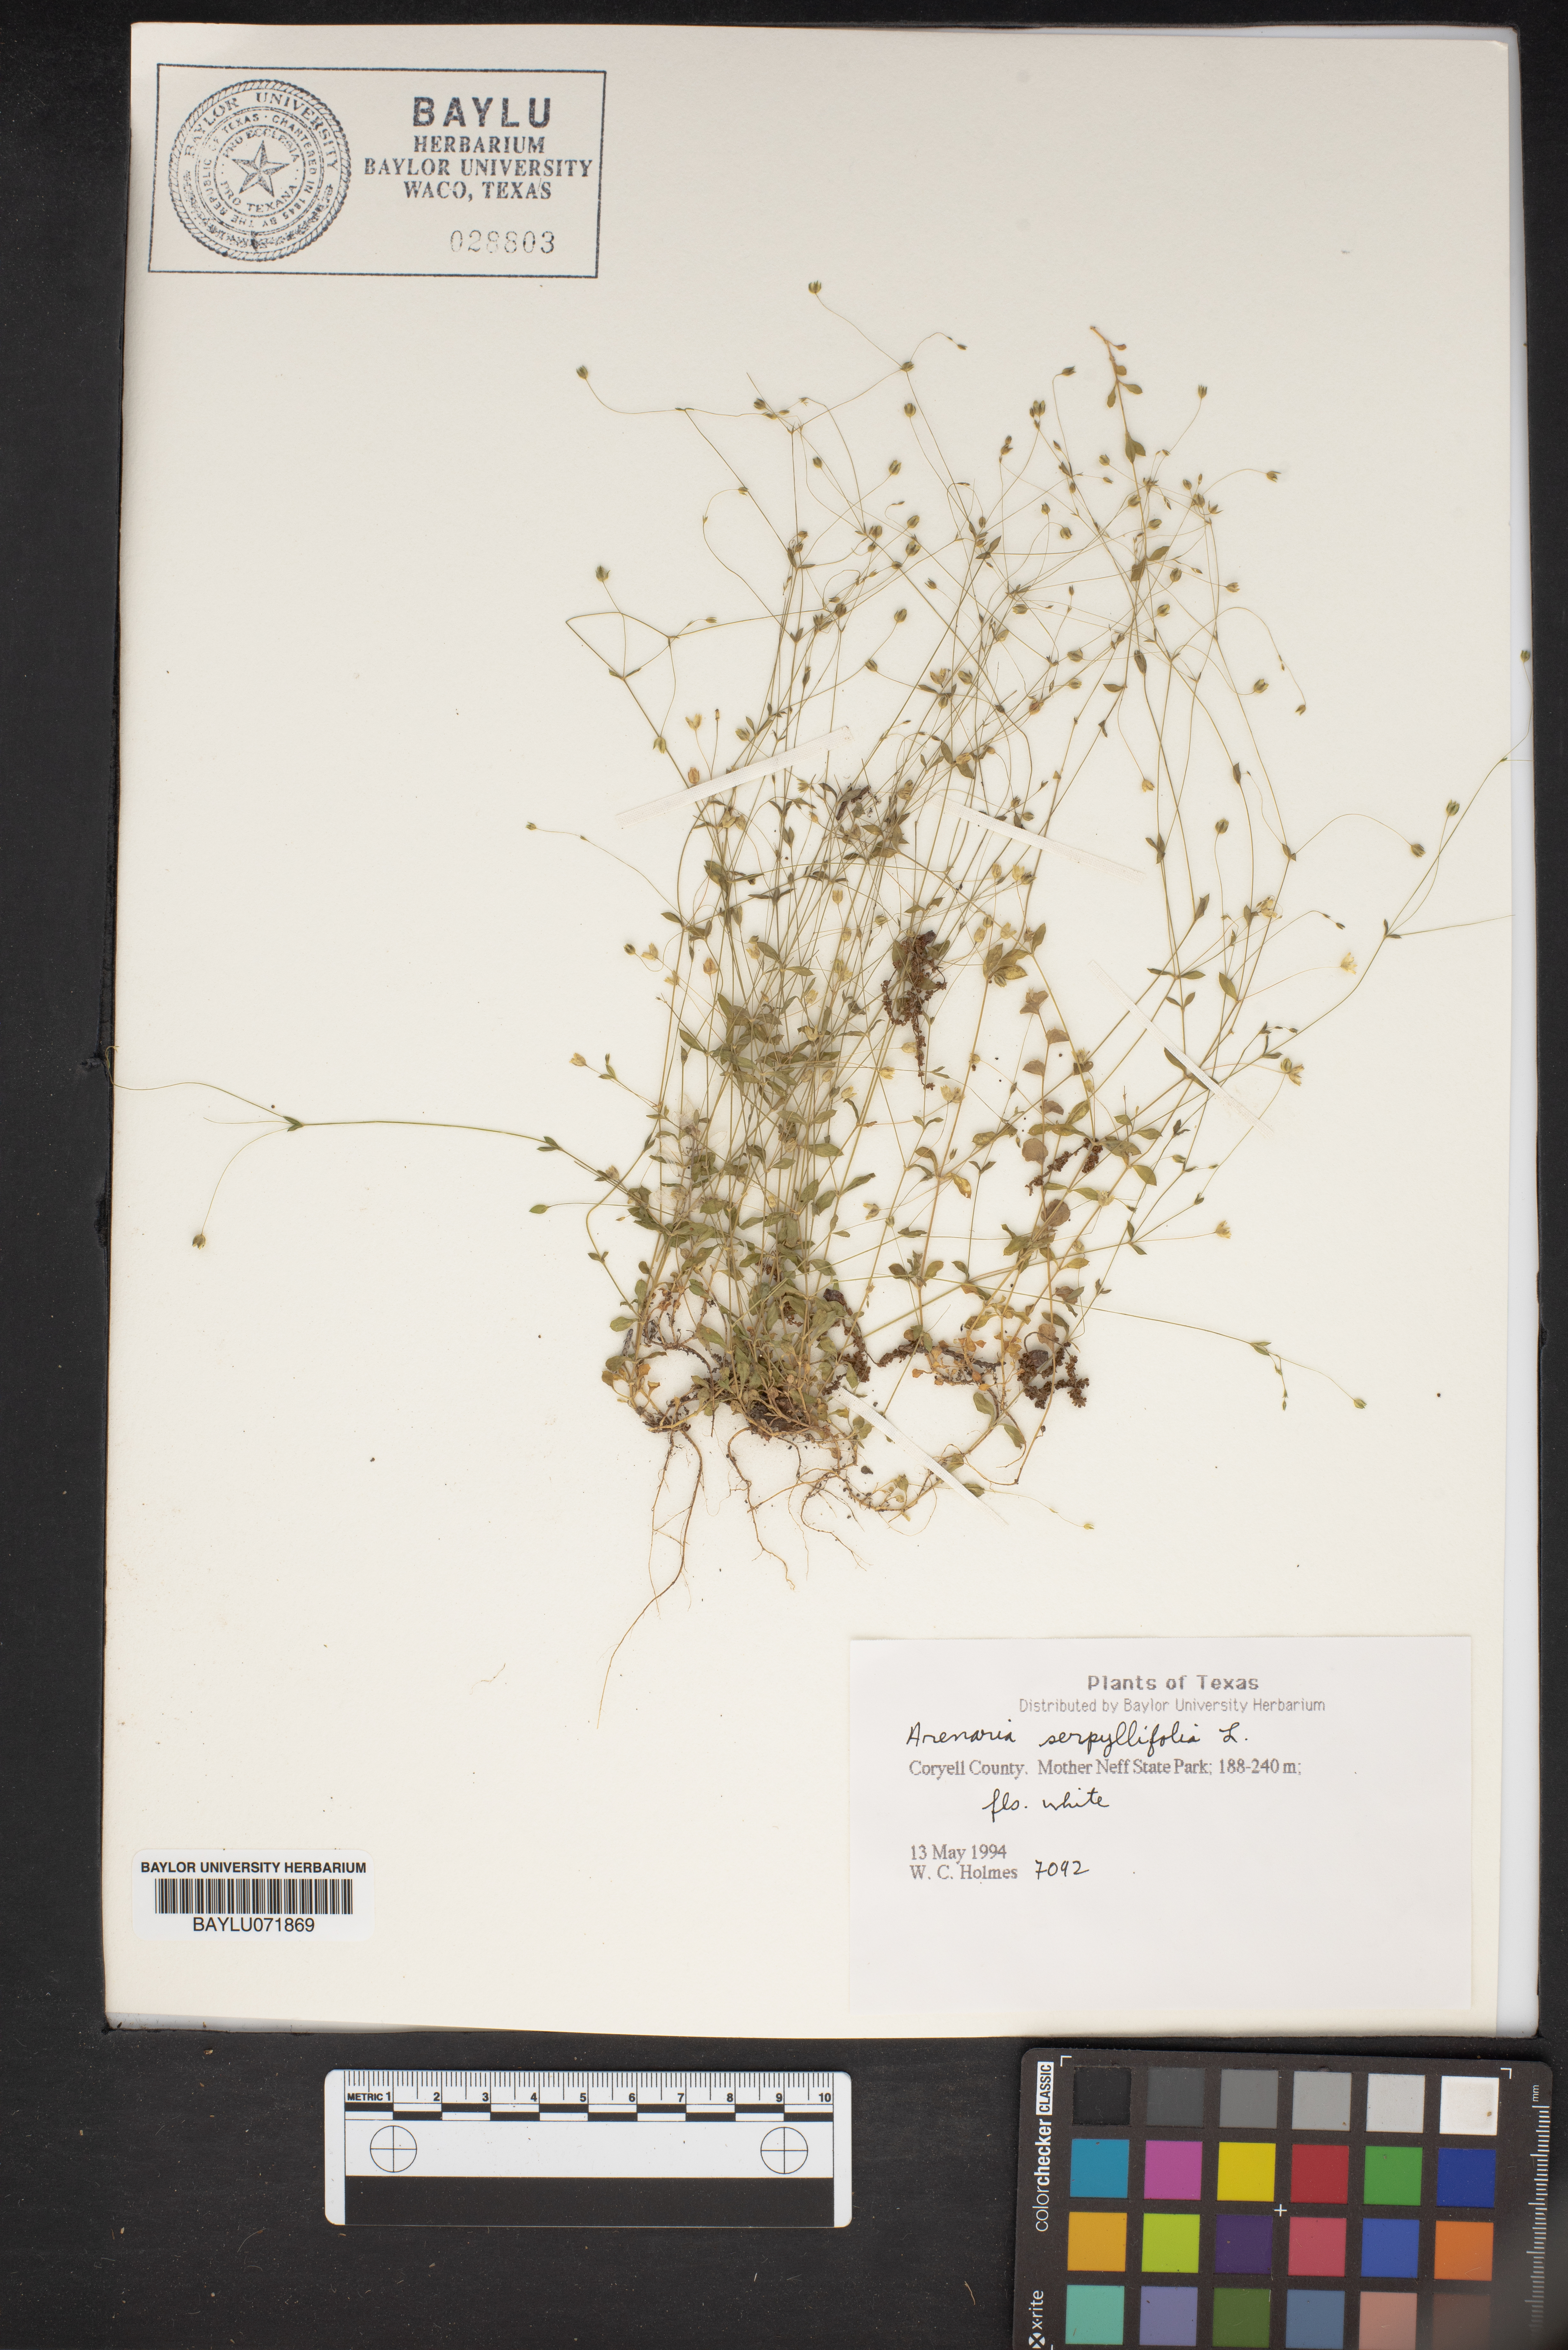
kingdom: Plantae
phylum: Tracheophyta
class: Magnoliopsida
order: Caryophyllales
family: Caryophyllaceae
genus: Arenaria
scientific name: Arenaria serpyllifolia
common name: Thyme-leaved sandwort
